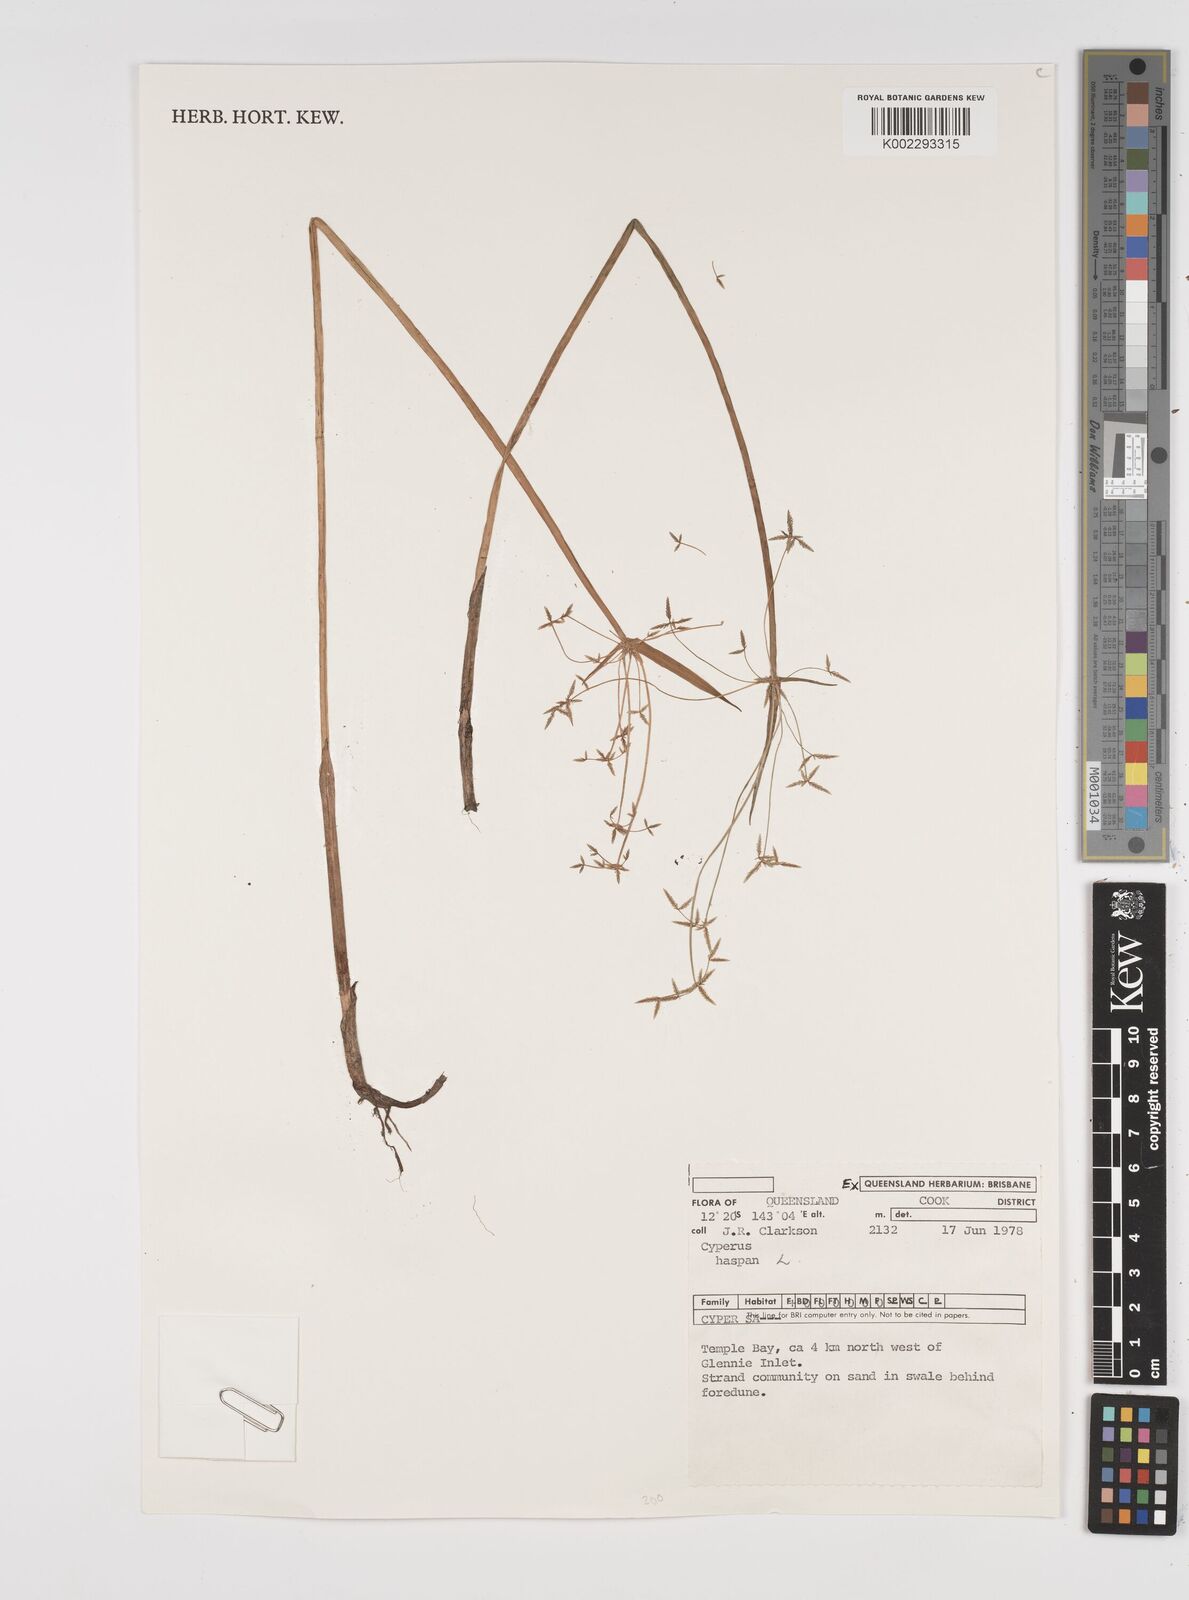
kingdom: Plantae
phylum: Tracheophyta
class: Liliopsida
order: Poales
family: Cyperaceae
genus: Cyperus
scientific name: Cyperus haspan
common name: Haspan flatsedge
